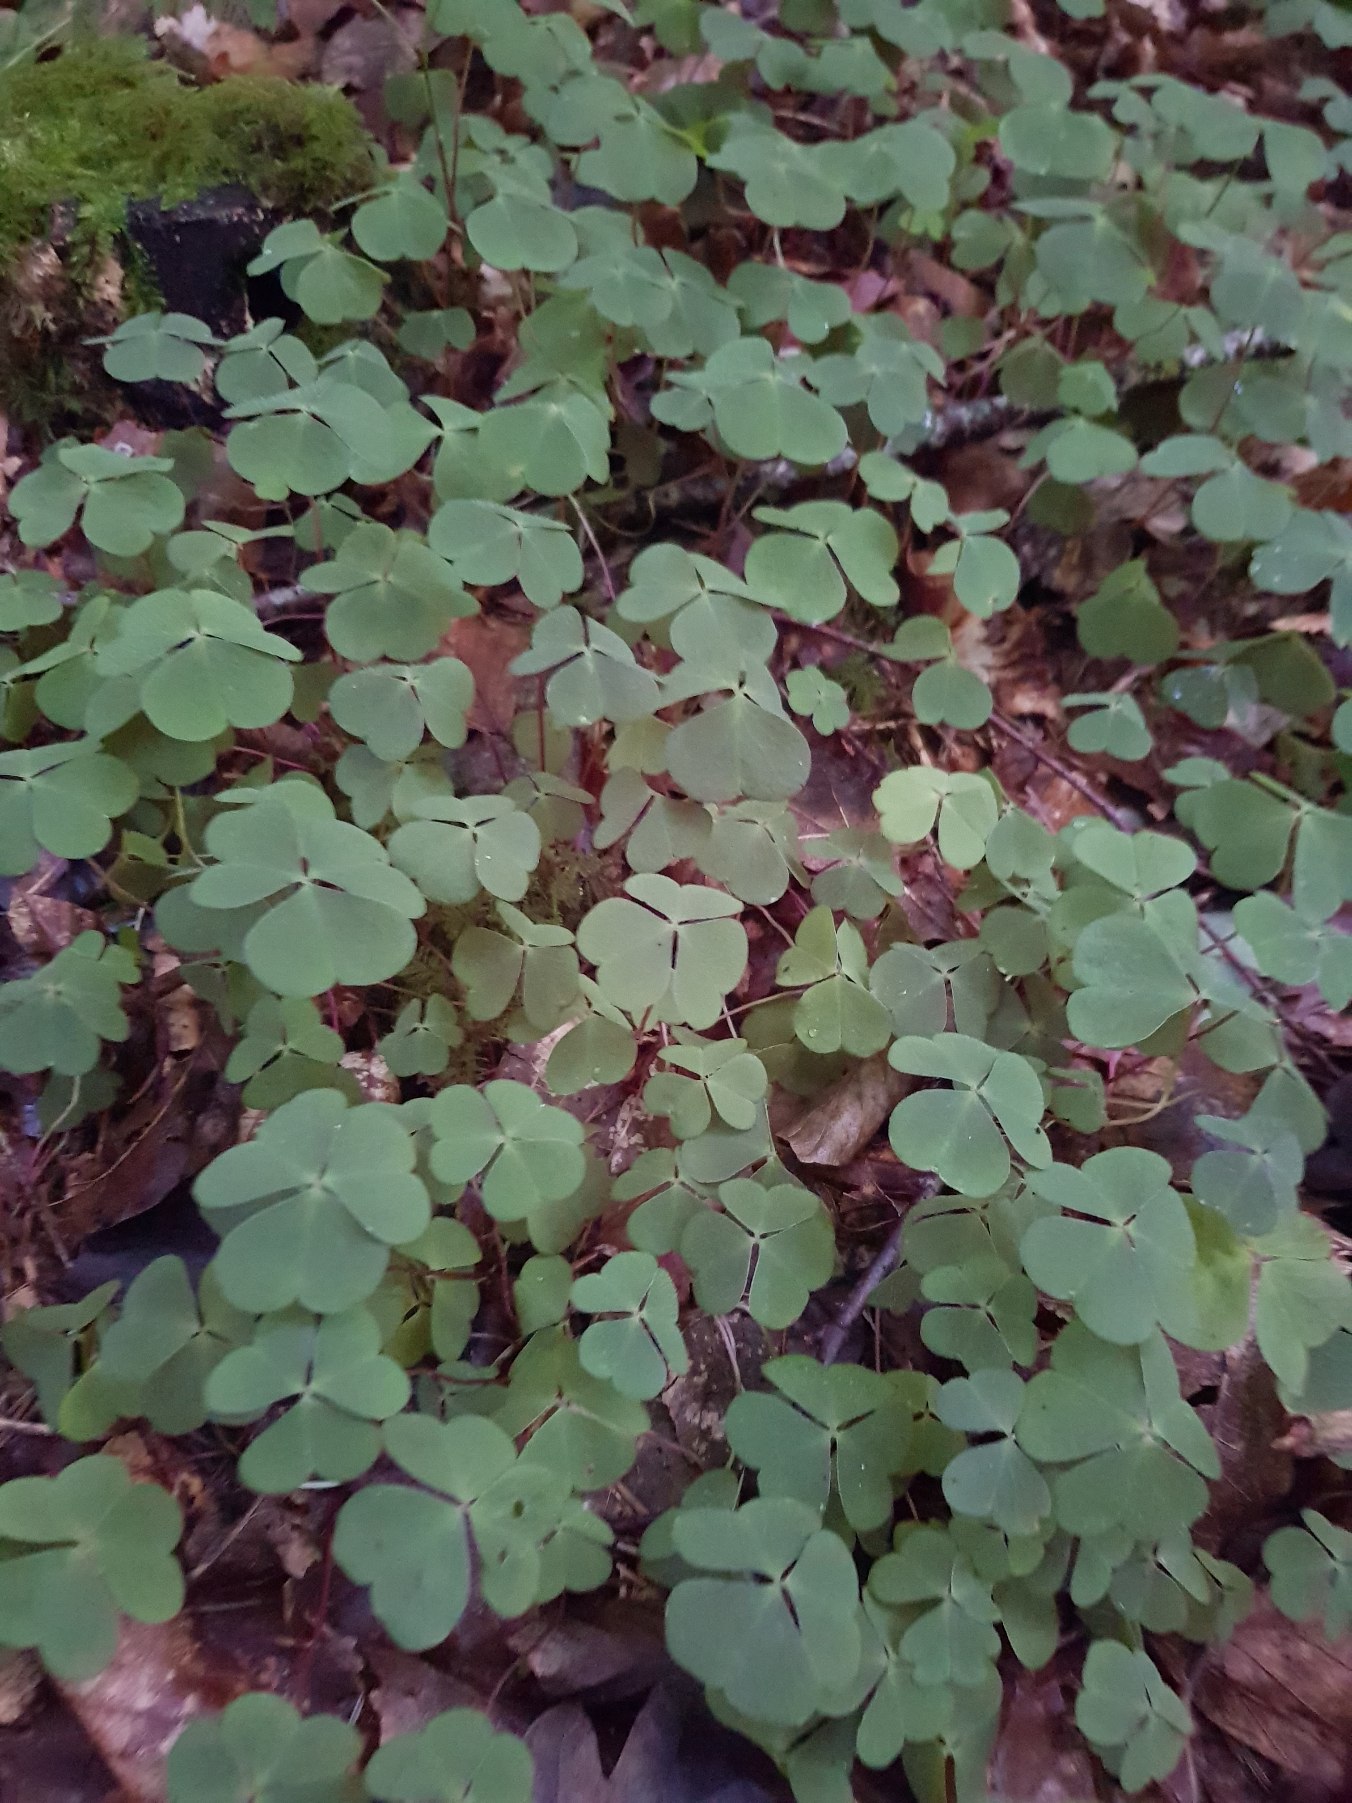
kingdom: Plantae
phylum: Tracheophyta
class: Magnoliopsida
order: Oxalidales
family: Oxalidaceae
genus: Oxalis
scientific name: Oxalis acetosella
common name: Skovsyre
